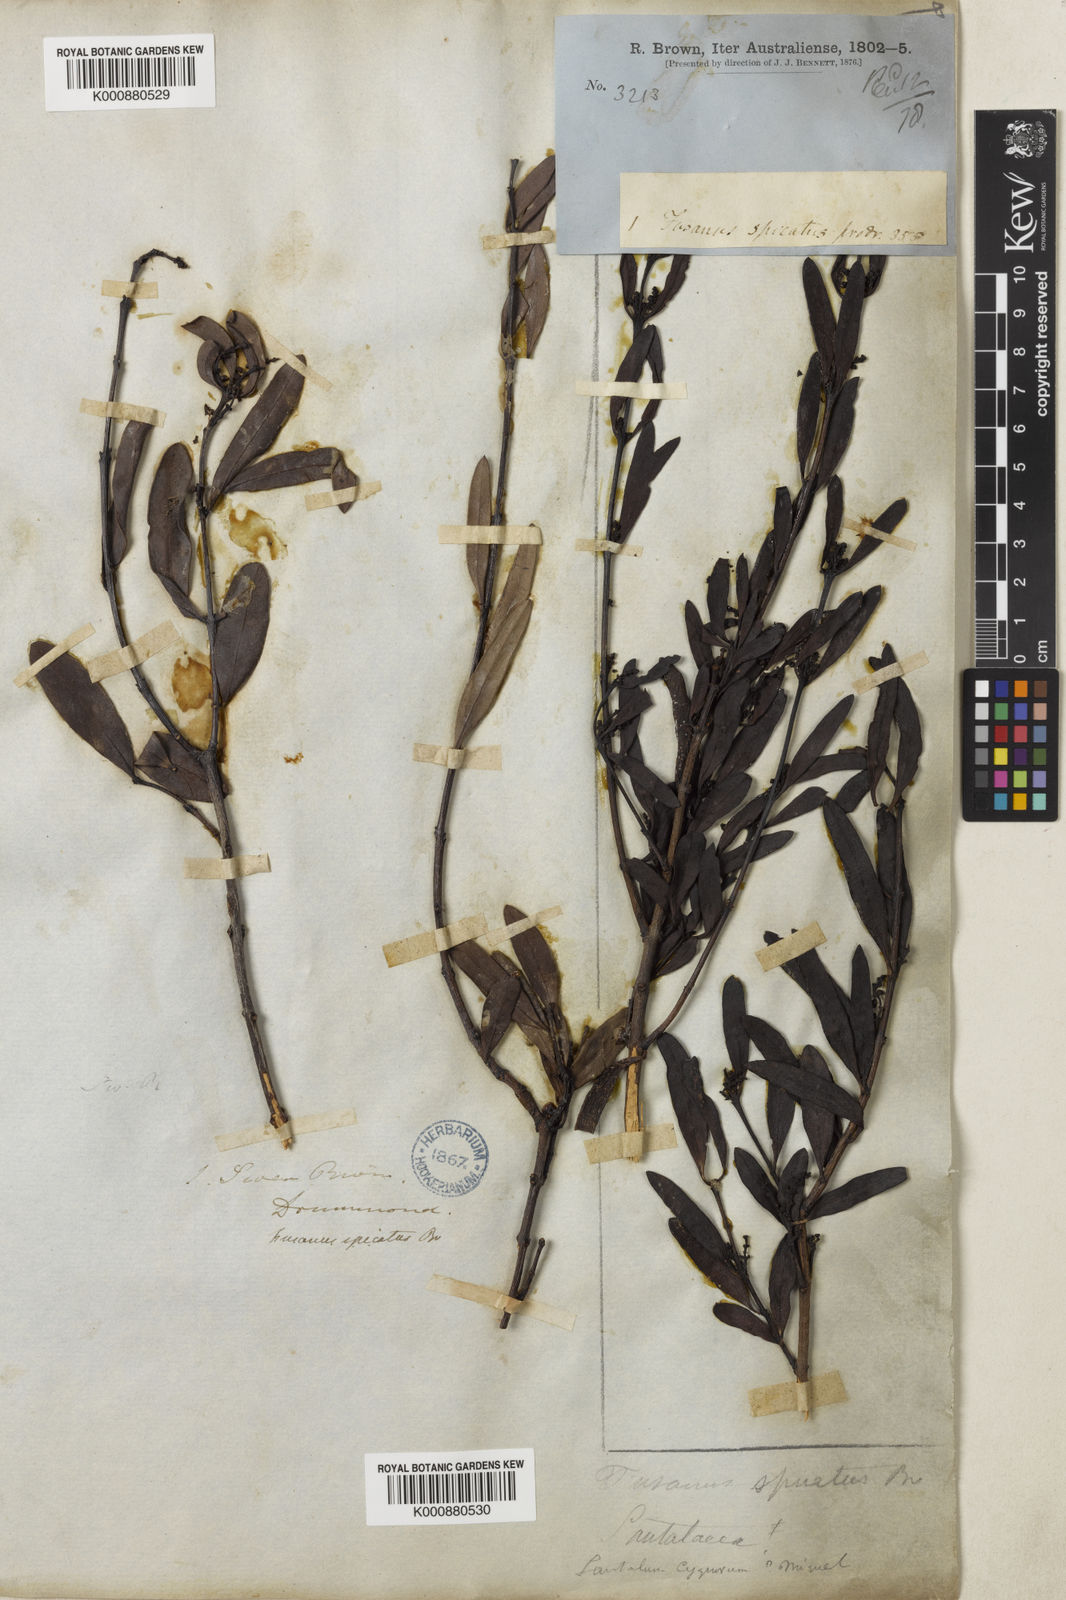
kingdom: Plantae
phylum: Tracheophyta
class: Magnoliopsida
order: Santalales
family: Santalaceae
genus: Santalum
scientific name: Santalum spicatum
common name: West australian sandalwood
